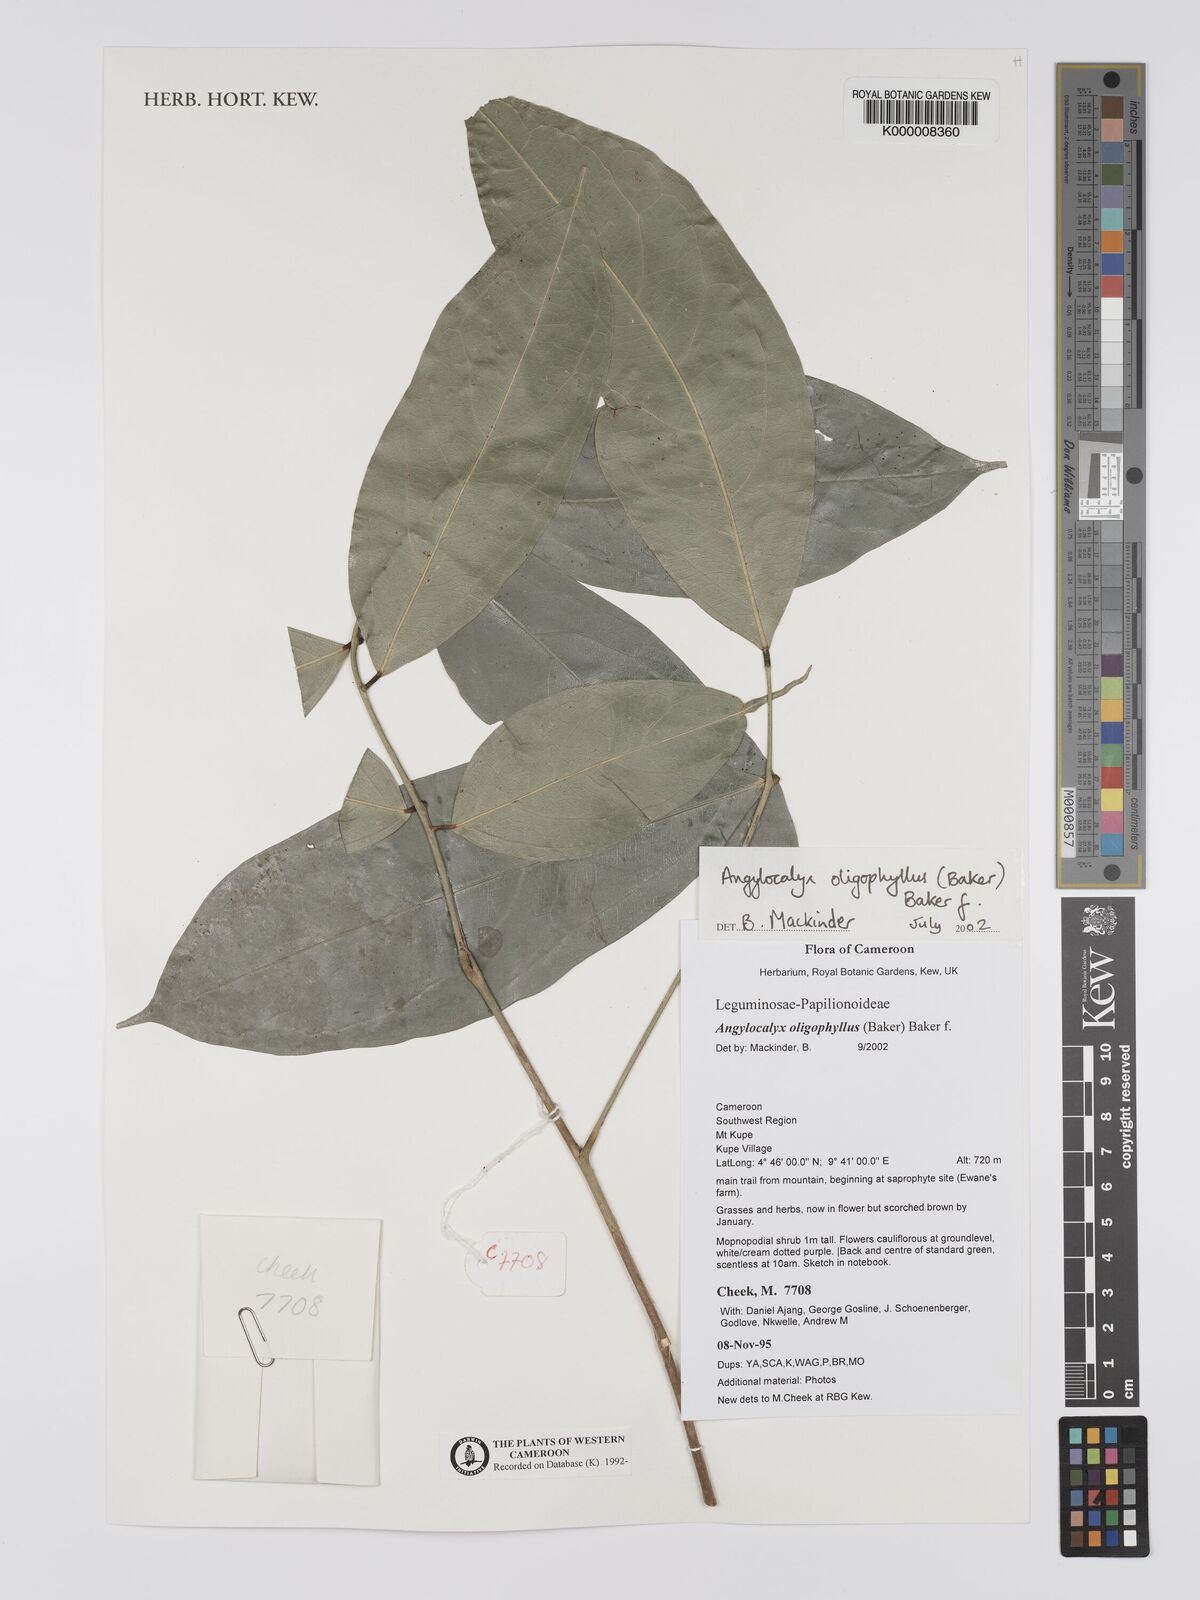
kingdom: Plantae
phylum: Tracheophyta
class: Magnoliopsida
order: Fabales
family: Fabaceae
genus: Angylocalyx
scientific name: Angylocalyx oligophyllus
